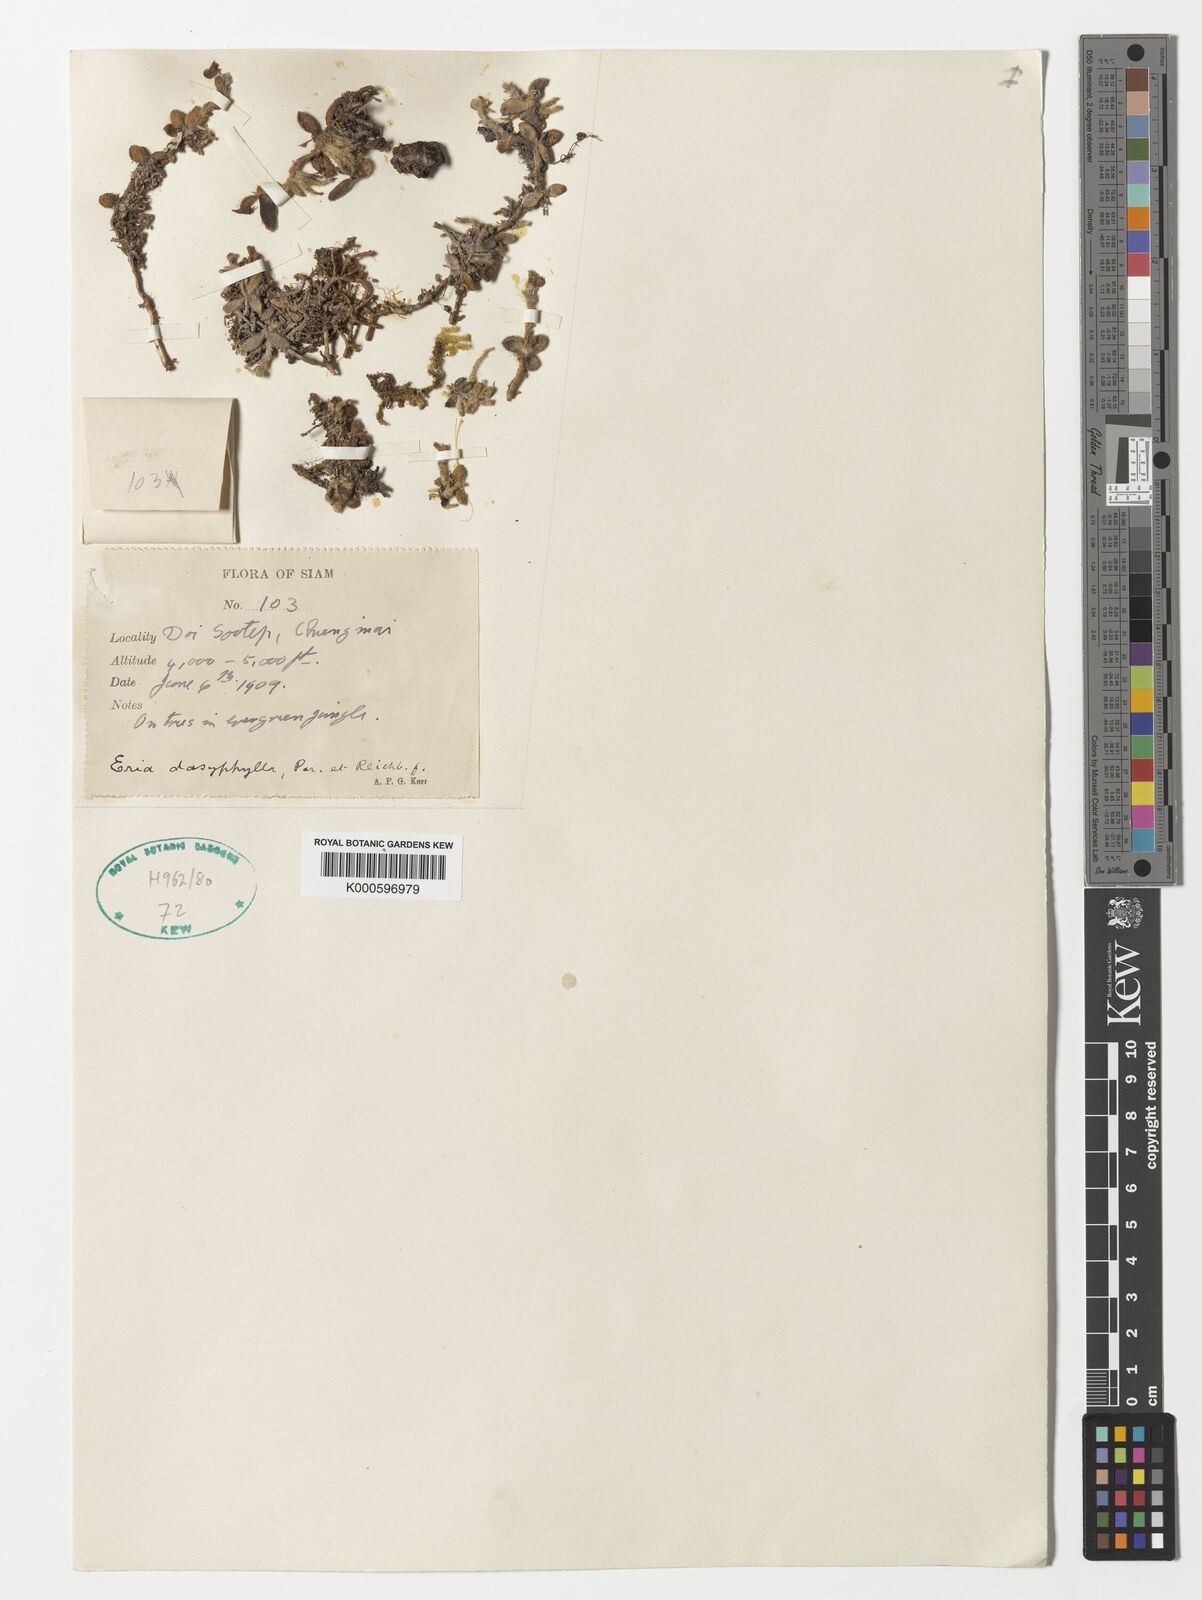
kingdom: Plantae
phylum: Tracheophyta
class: Liliopsida
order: Asparagales
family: Orchidaceae
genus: Trichotosia
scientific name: Trichotosia dasyphylla
